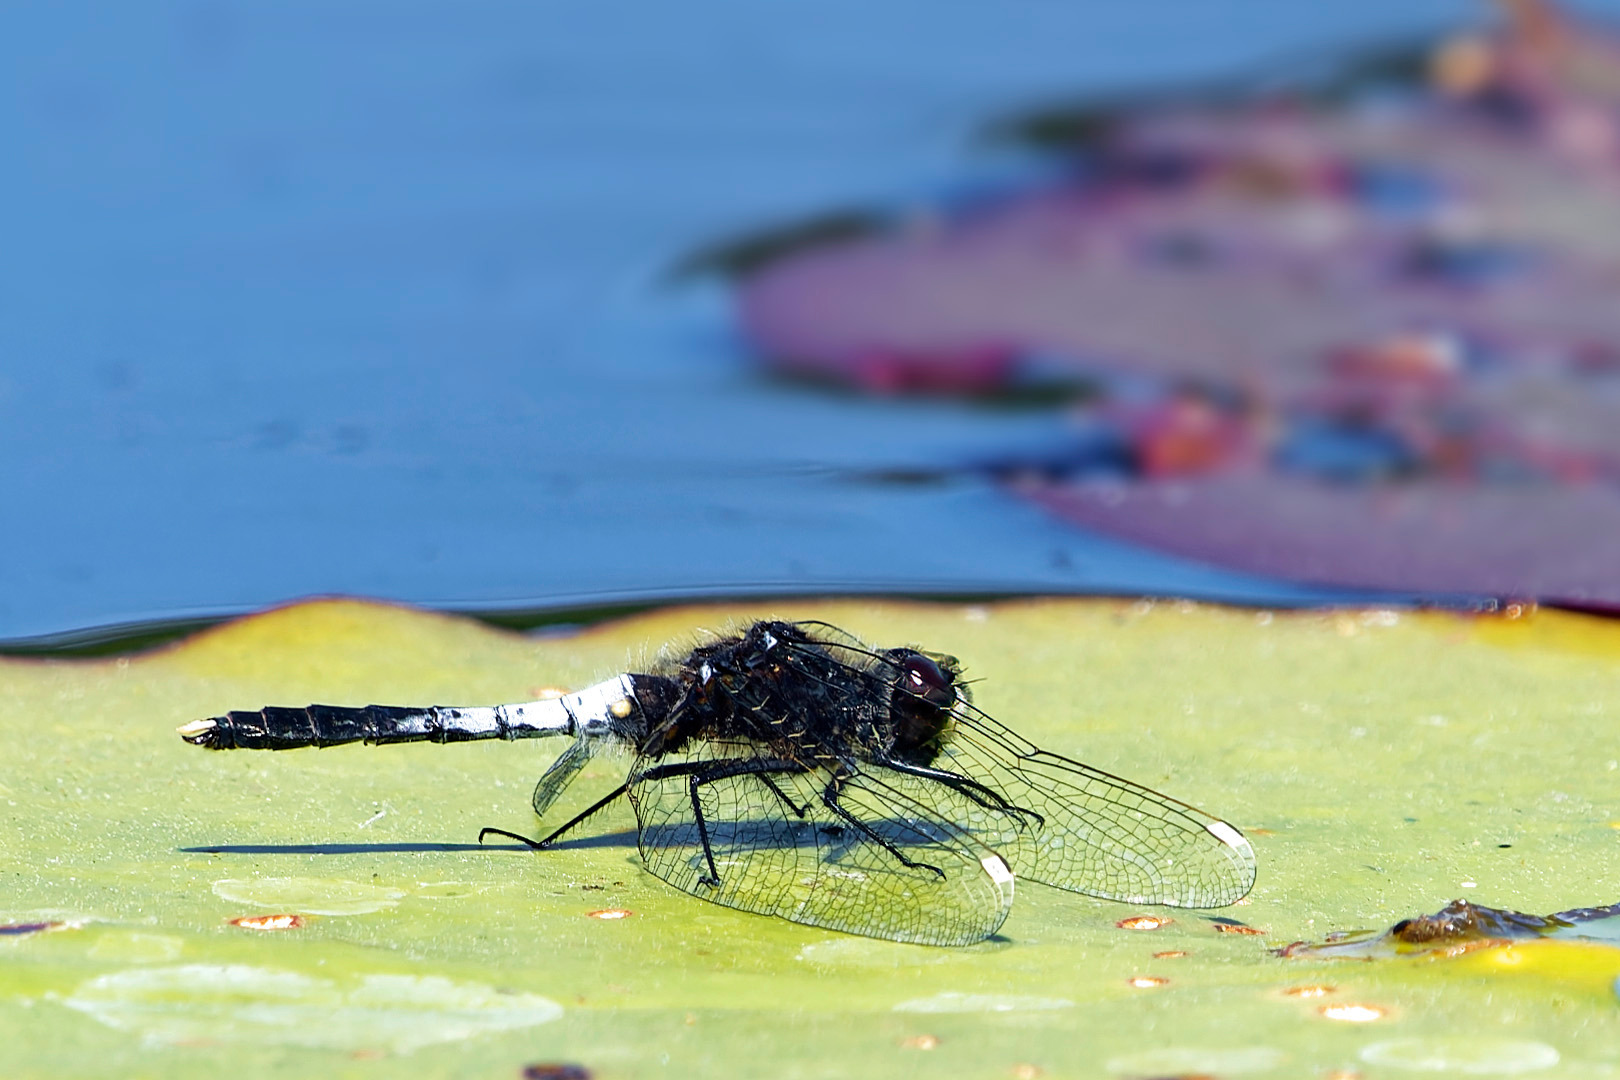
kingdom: Animalia
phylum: Arthropoda
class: Insecta
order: Odonata
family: Libellulidae
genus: Leucorrhinia
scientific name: Leucorrhinia caudalis
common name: Åkande-kærguldsmed
